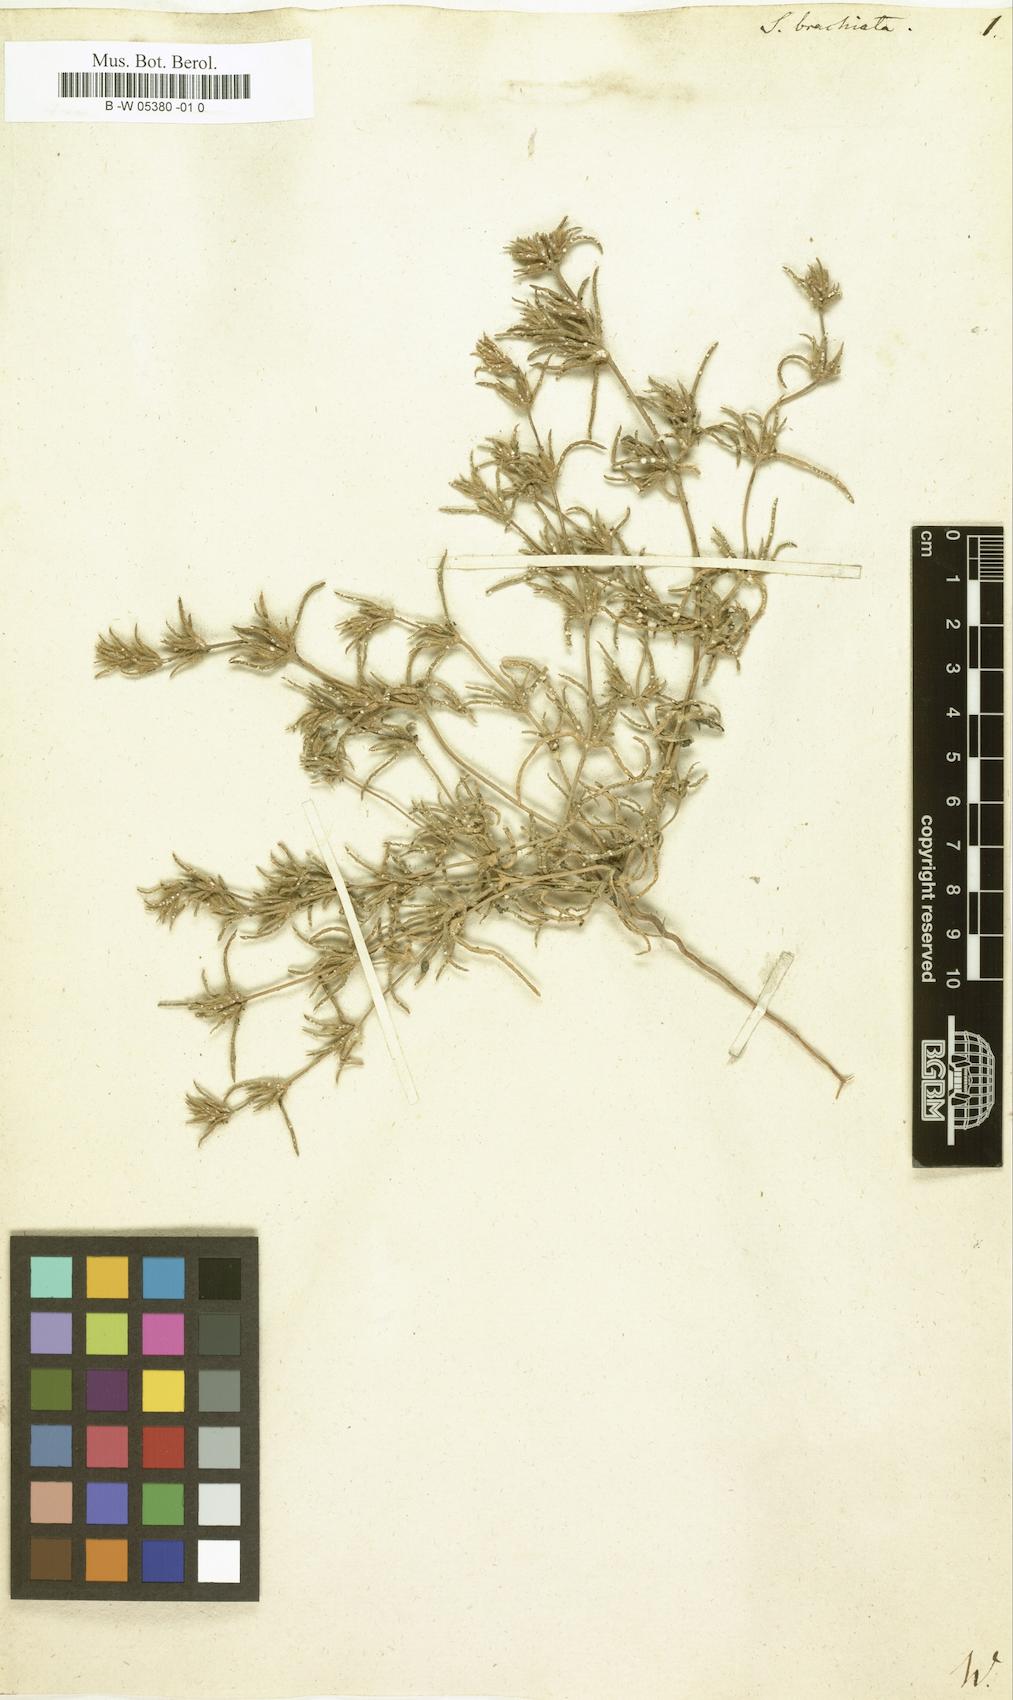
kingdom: Plantae
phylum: Tracheophyta
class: Magnoliopsida
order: Caryophyllales
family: Amaranthaceae
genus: Pyankovia
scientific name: Pyankovia brachiata
